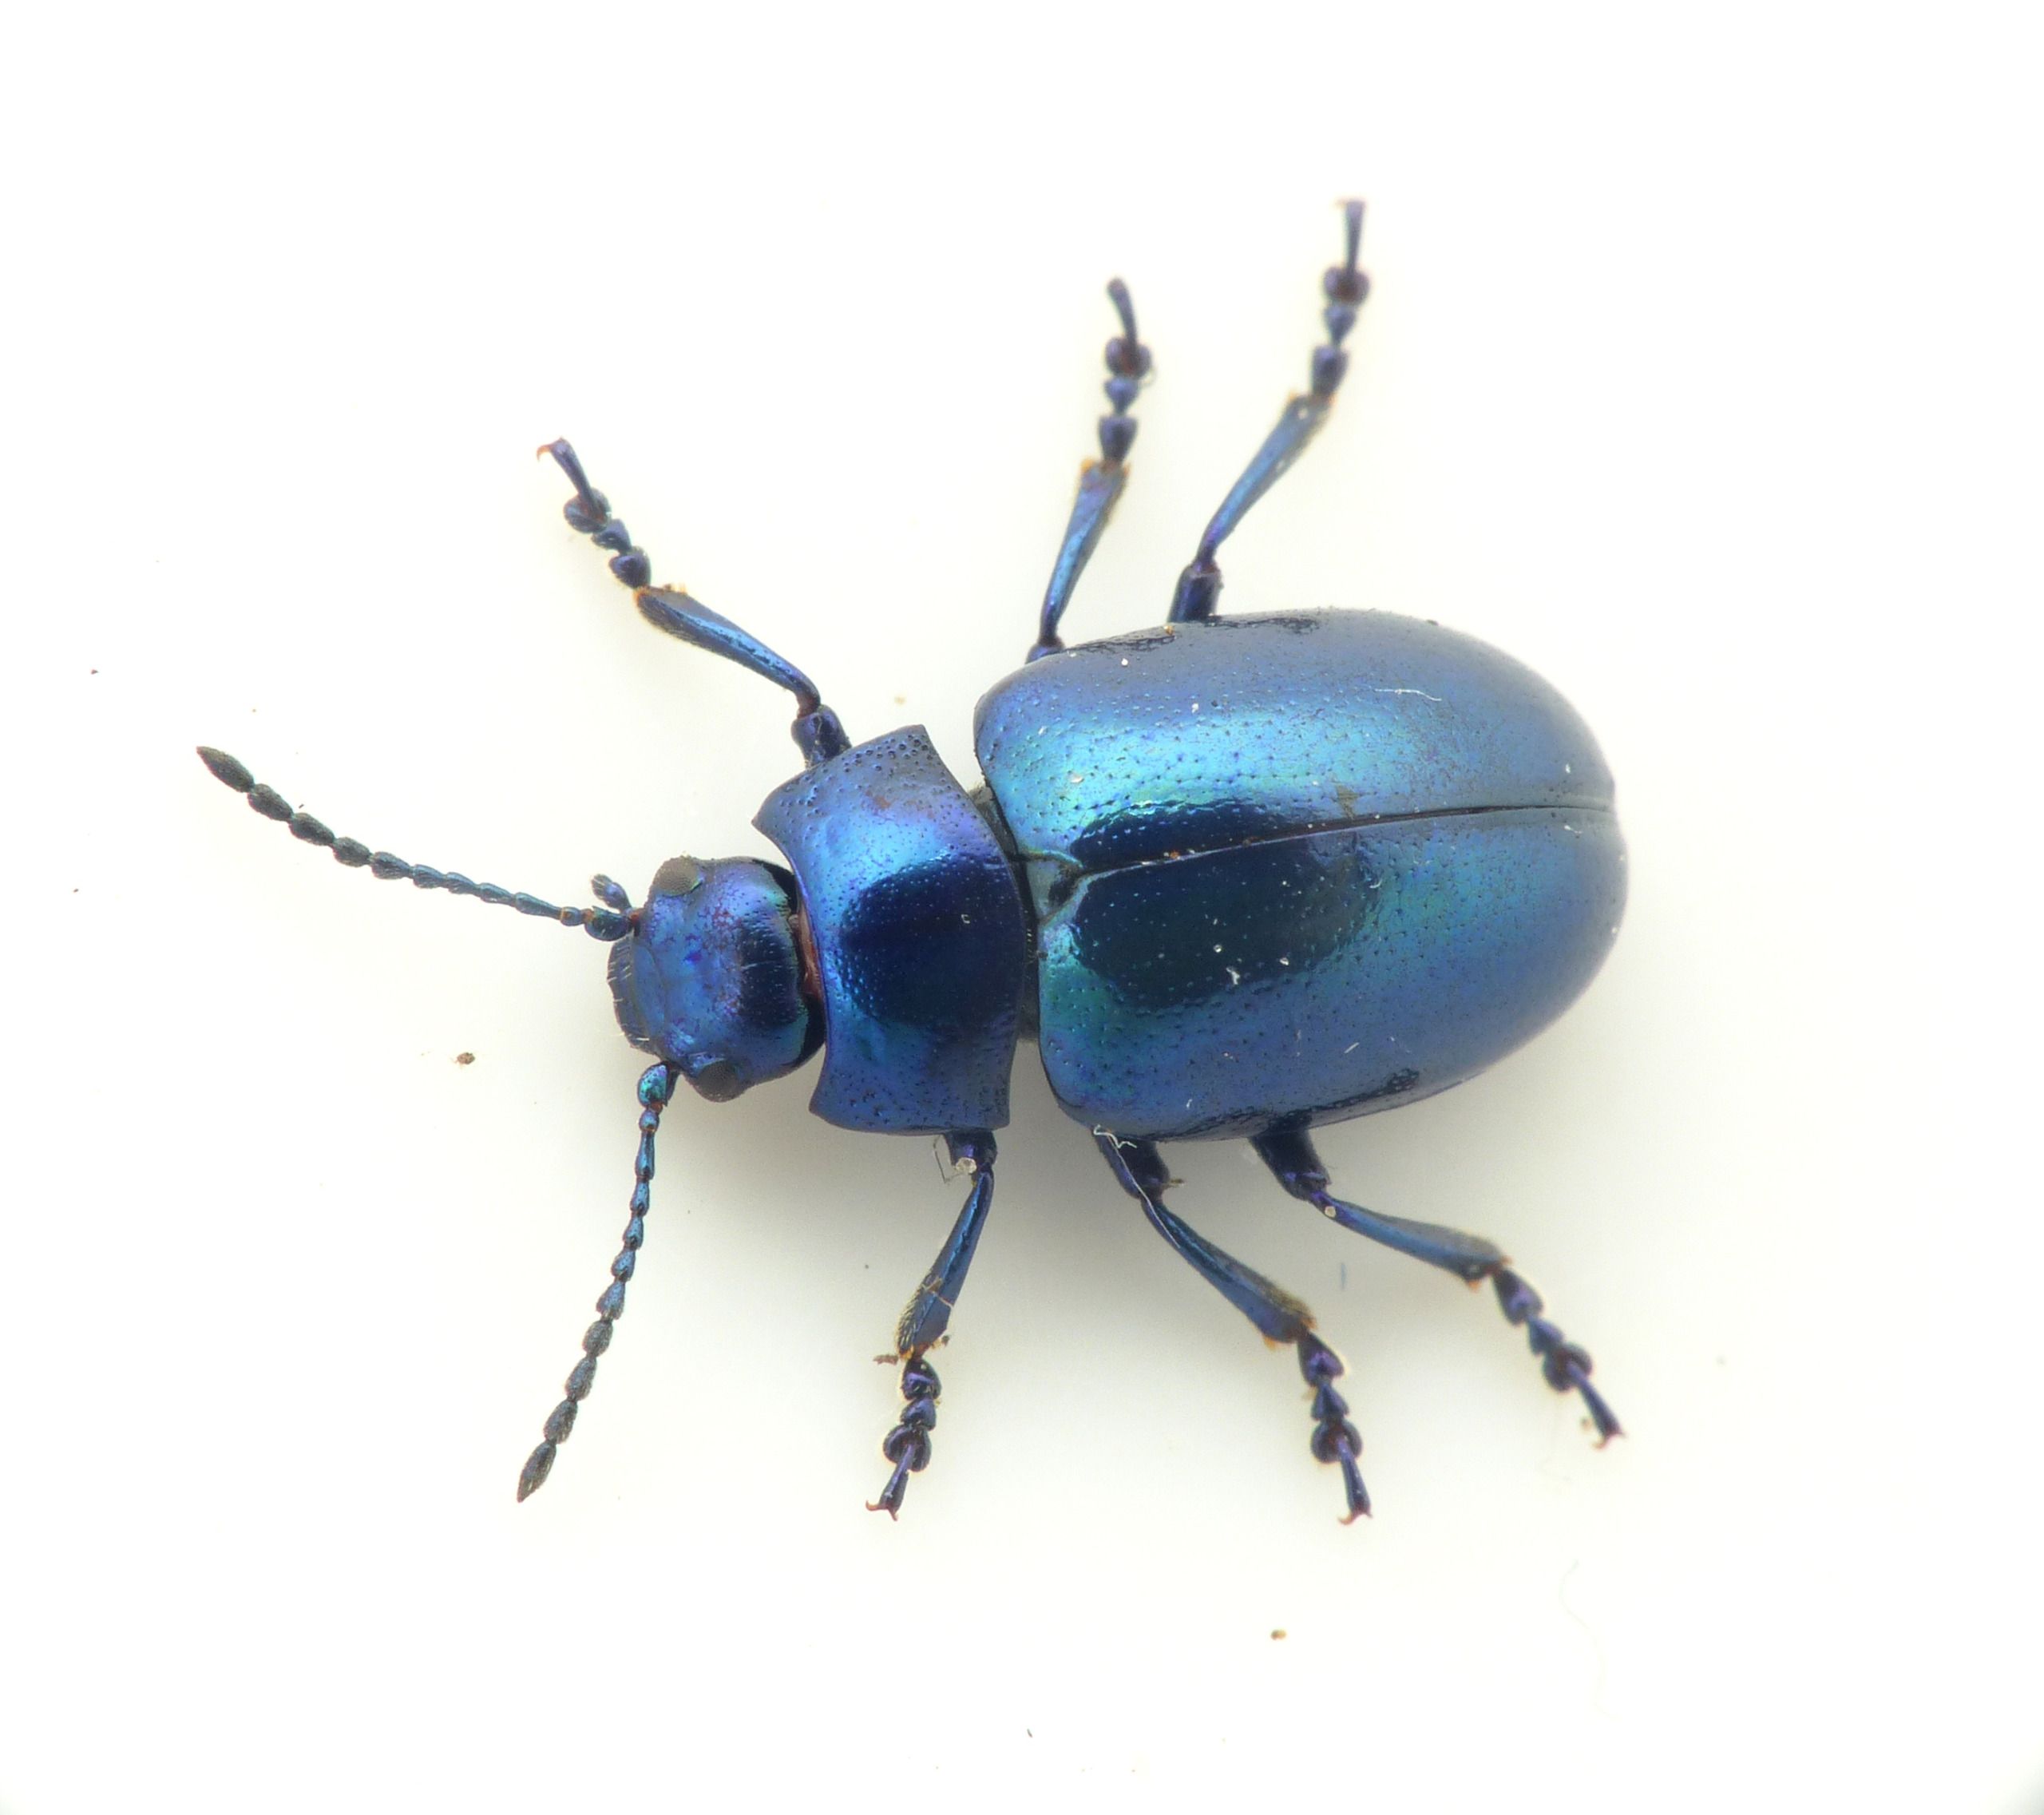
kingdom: Animalia
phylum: Arthropoda
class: Insecta
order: Coleoptera
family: Chrysomelidae
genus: Chrysolina
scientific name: Chrysolina coerulans
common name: Blå mynteguldbille
